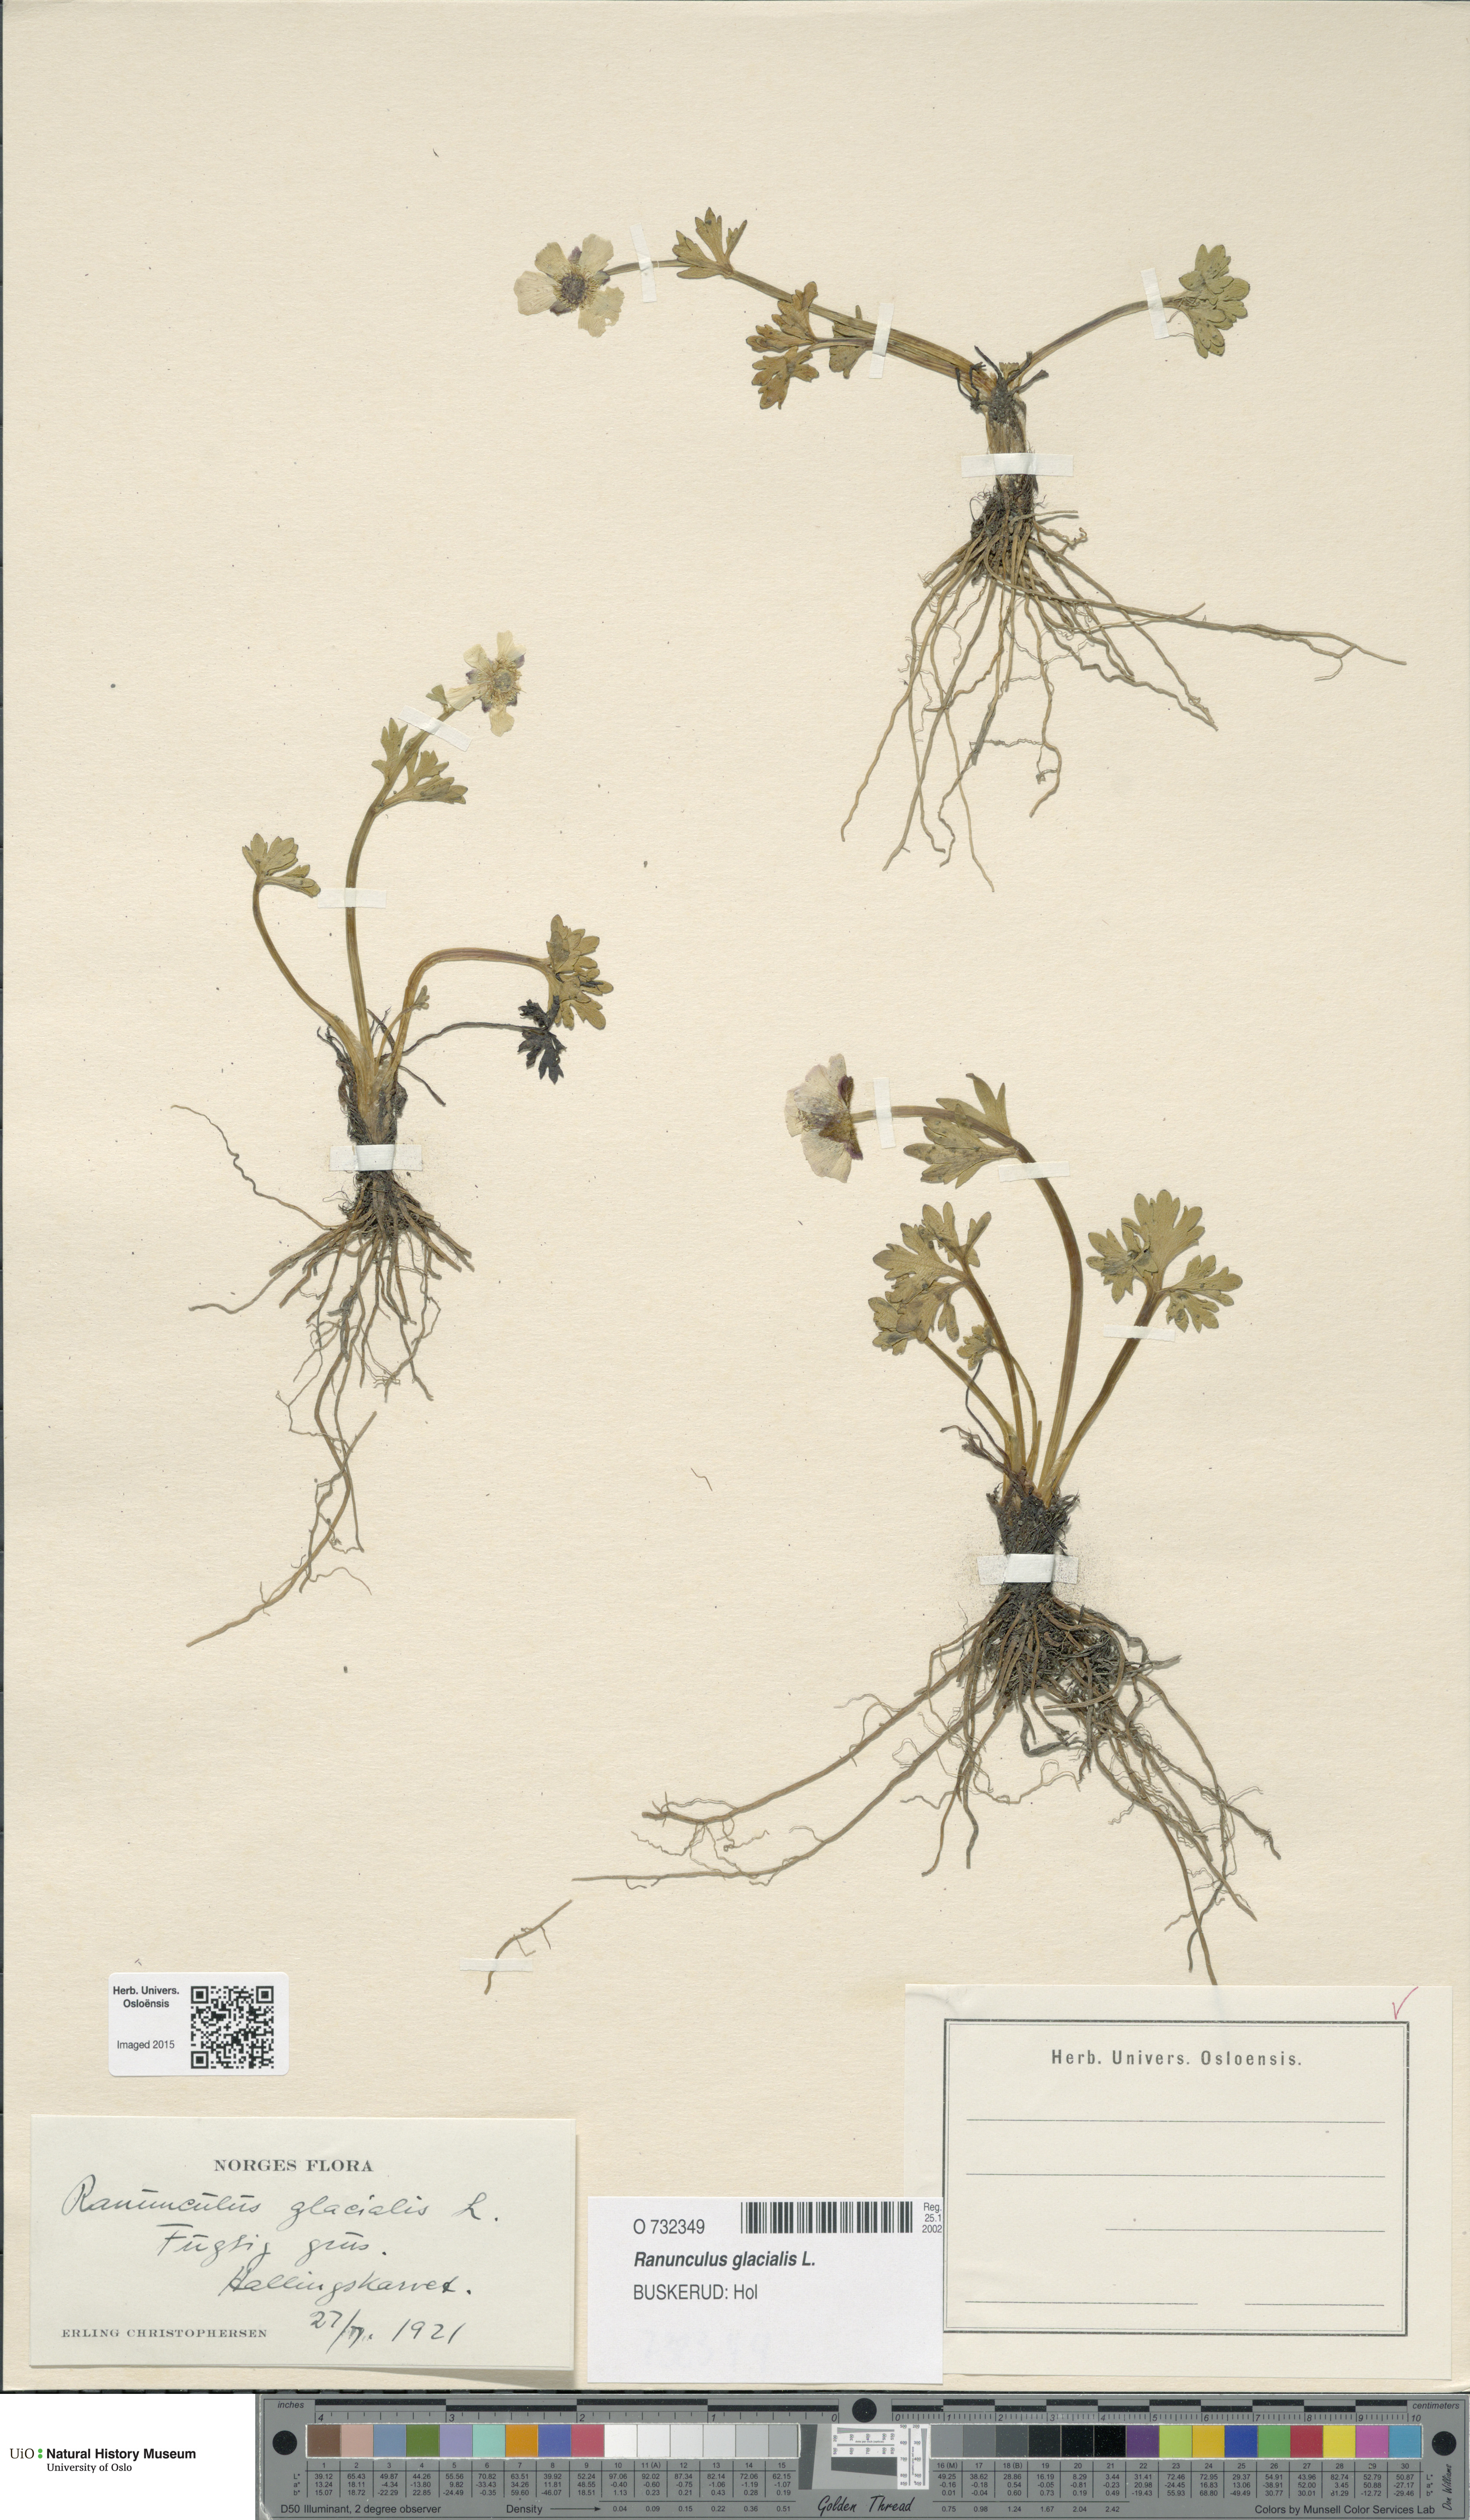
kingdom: Plantae
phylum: Tracheophyta
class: Magnoliopsida
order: Ranunculales
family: Ranunculaceae
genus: Ranunculus
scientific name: Ranunculus glacialis
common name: Glacier buttercup
